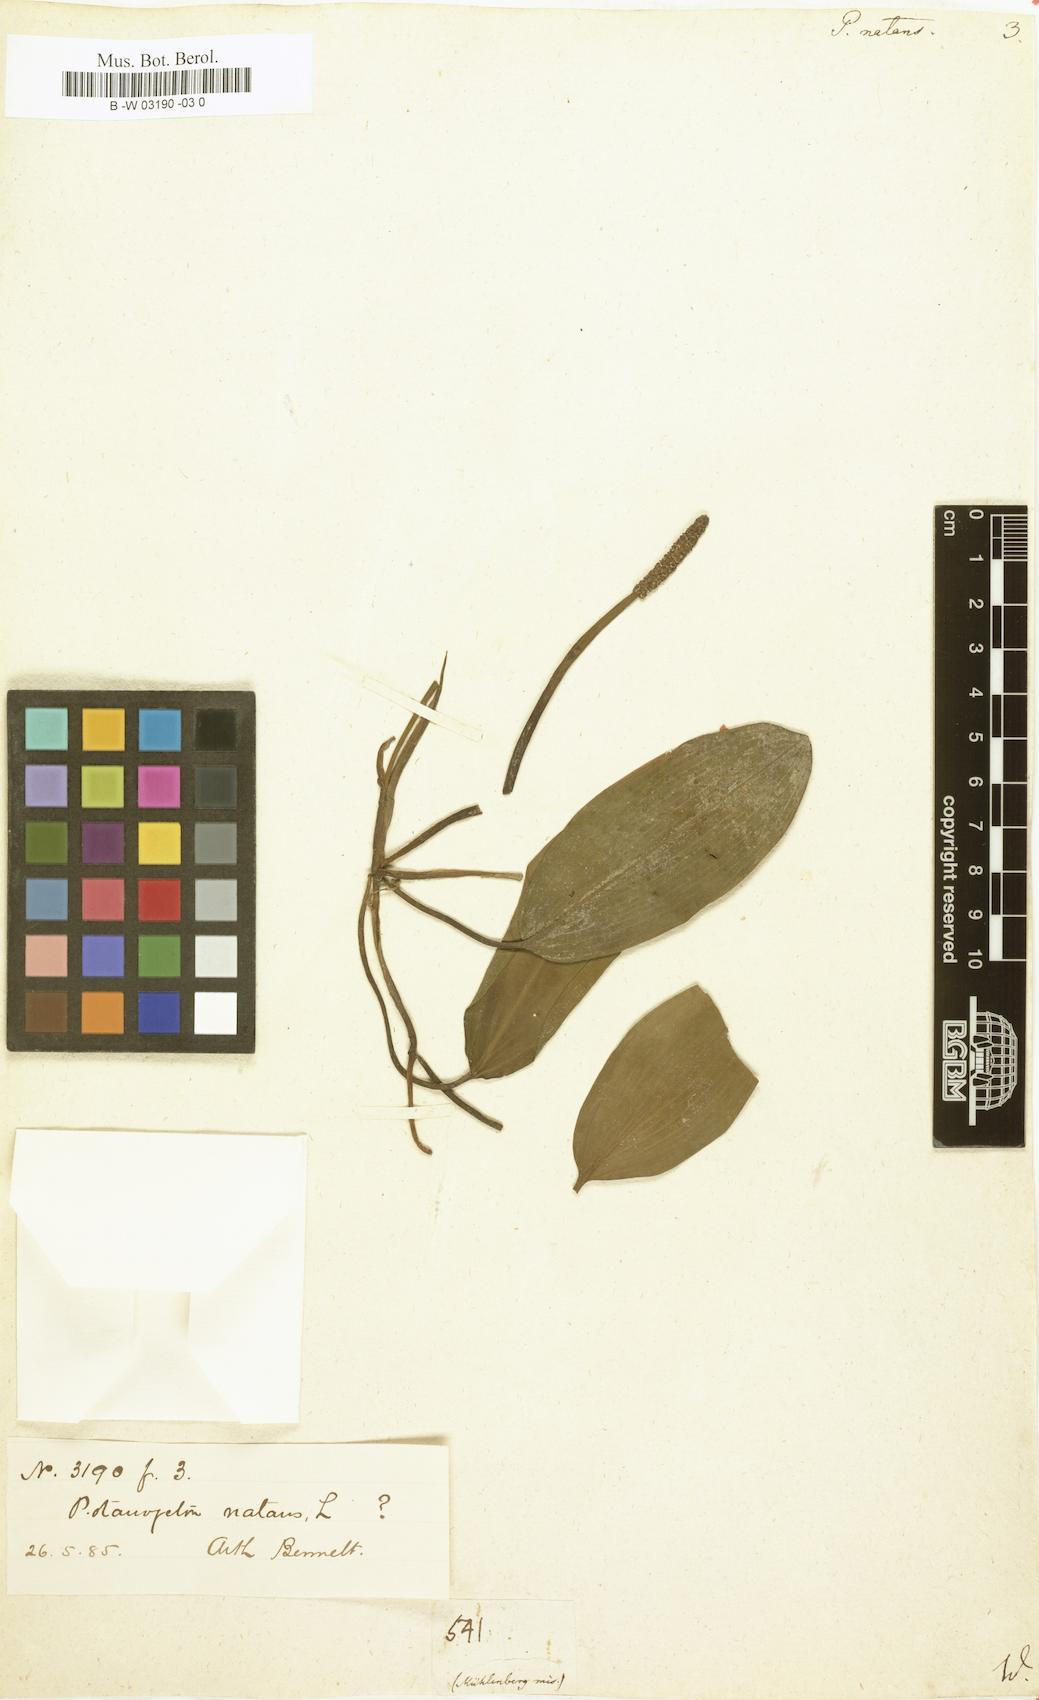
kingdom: Plantae
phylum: Tracheophyta
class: Liliopsida
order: Alismatales
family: Potamogetonaceae
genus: Potamogeton
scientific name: Potamogeton natans
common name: Broad-leaved pondweed
